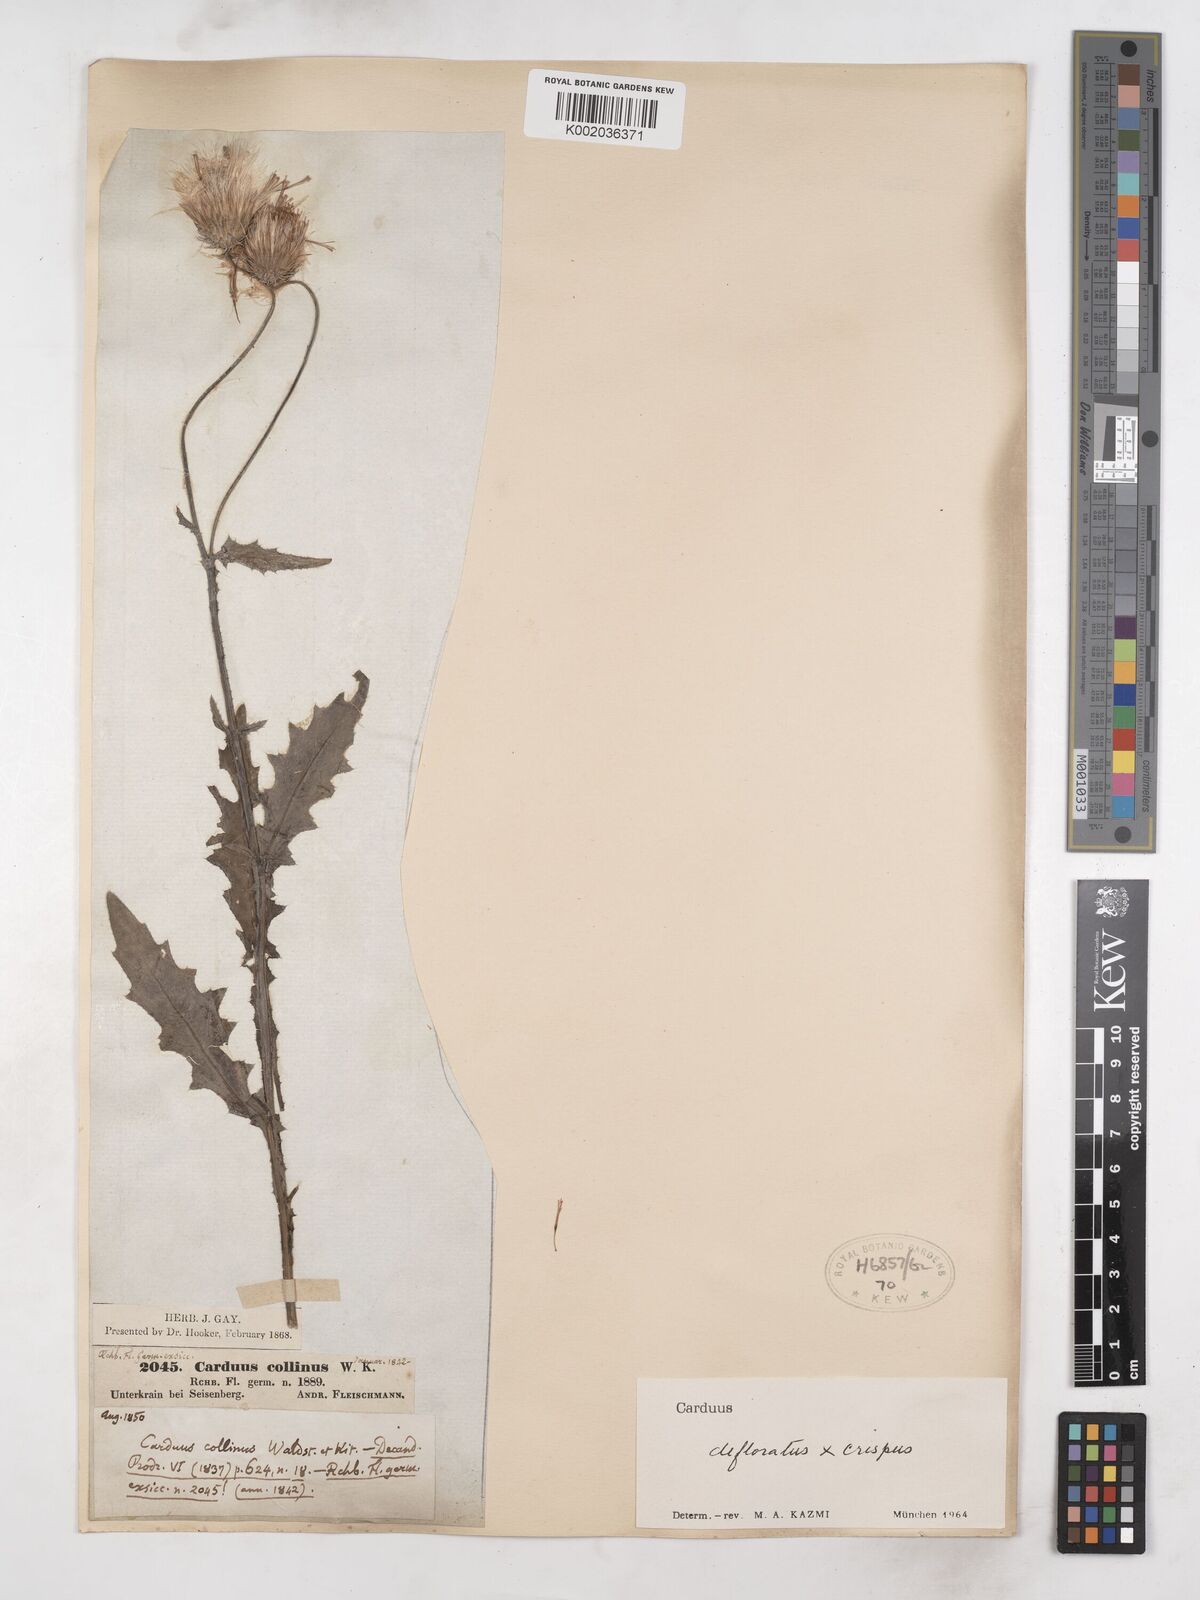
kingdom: Plantae
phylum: Tracheophyta
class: Magnoliopsida
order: Asterales
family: Asteraceae
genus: Carduus
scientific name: Carduus crispus
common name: Welted thistle
